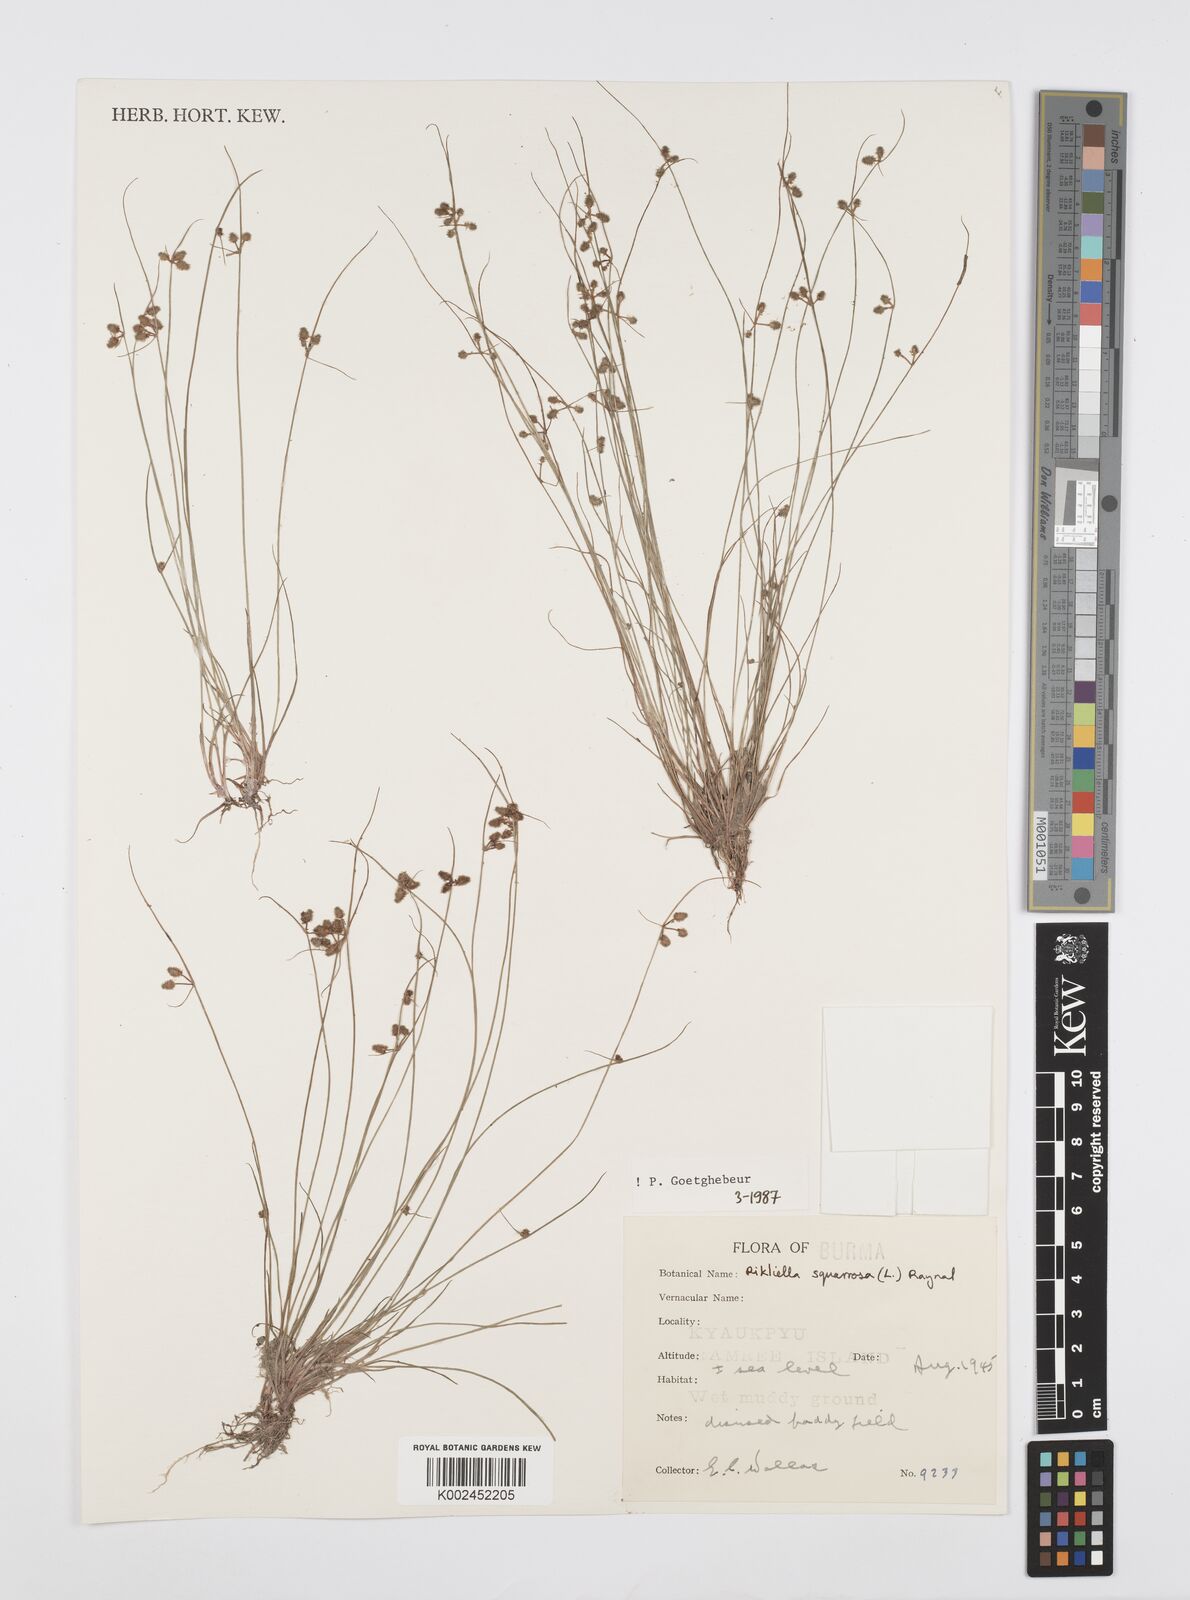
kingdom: Plantae
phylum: Tracheophyta
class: Liliopsida
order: Poales
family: Cyperaceae
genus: Cyperus
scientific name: Cyperus squarrosus
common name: Awned cyperus
